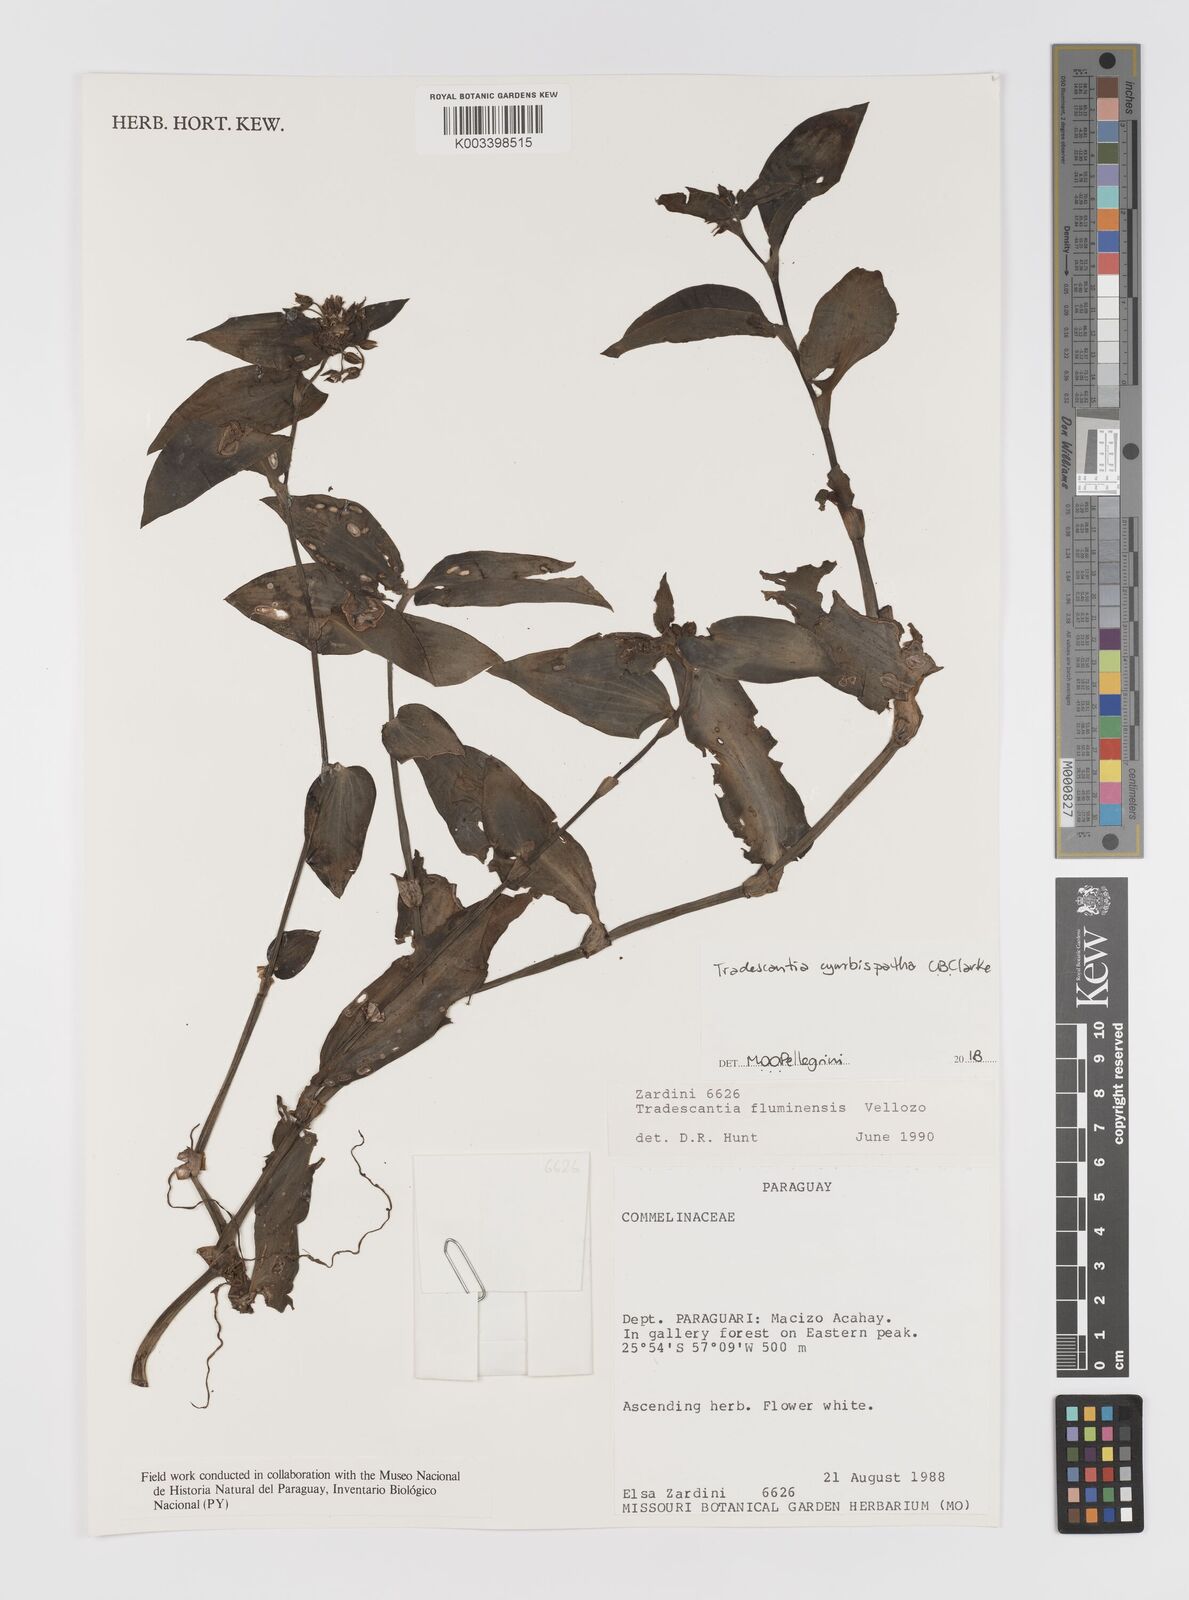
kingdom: Plantae
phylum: Tracheophyta
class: Liliopsida
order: Commelinales
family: Commelinaceae
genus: Tradescantia
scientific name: Tradescantia cymbispatha
